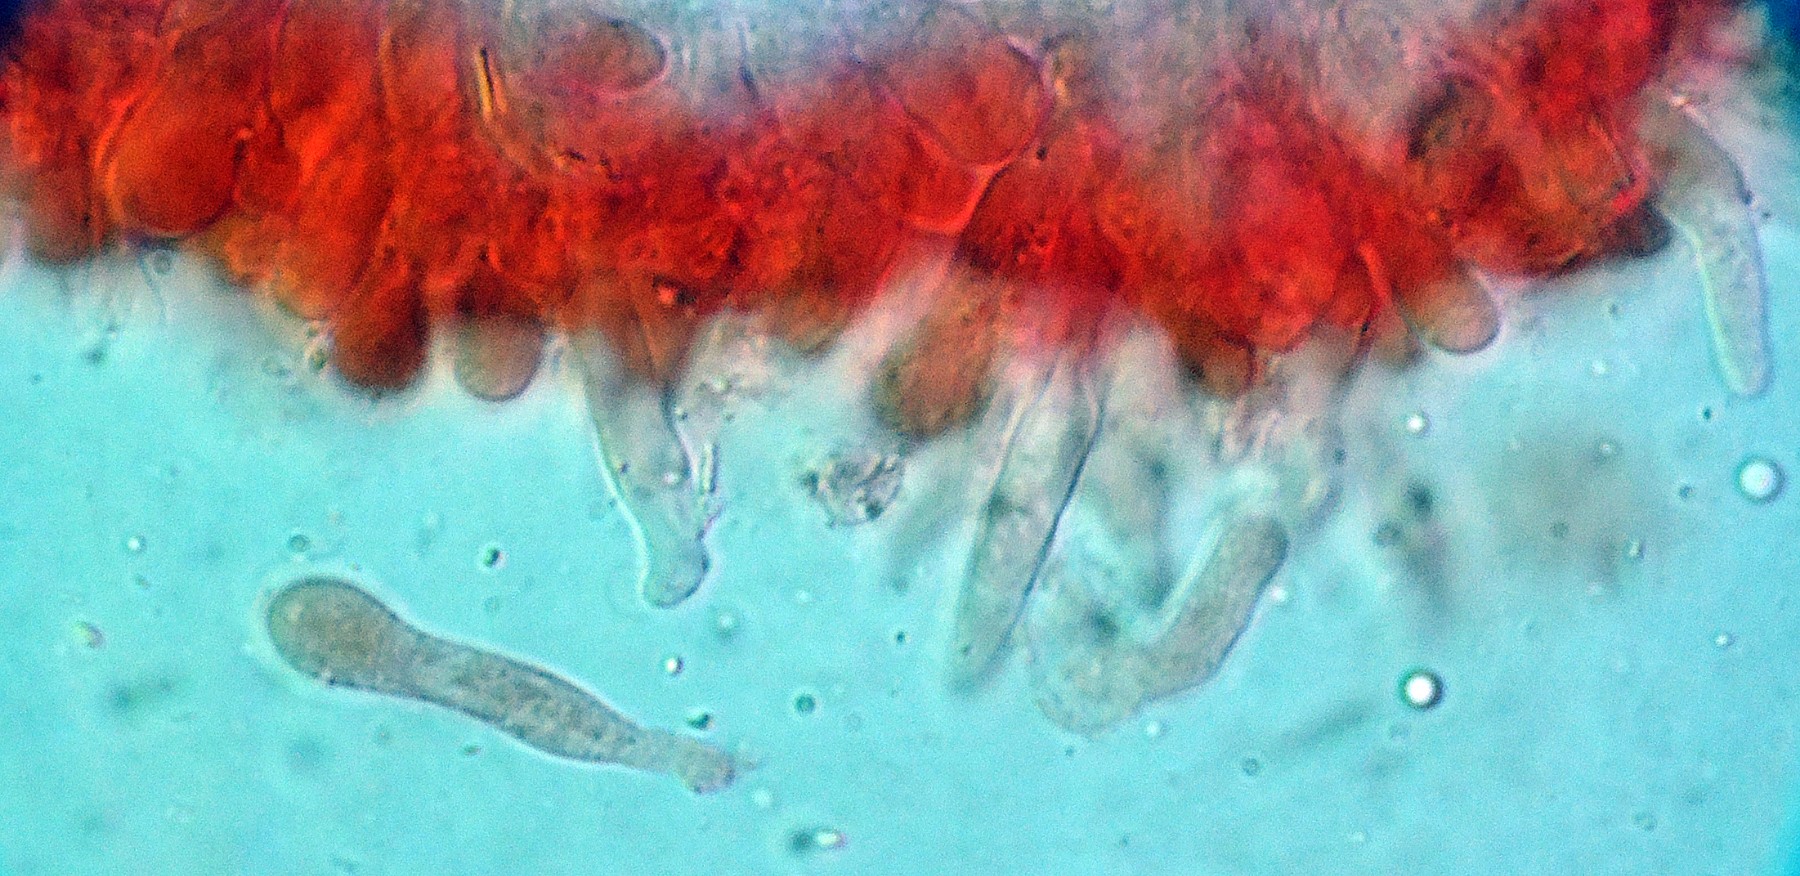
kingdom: Fungi
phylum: Basidiomycota
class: Agaricomycetes
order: Agaricales
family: Porotheleaceae
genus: Phloeomana
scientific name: Phloeomana atropapillata
